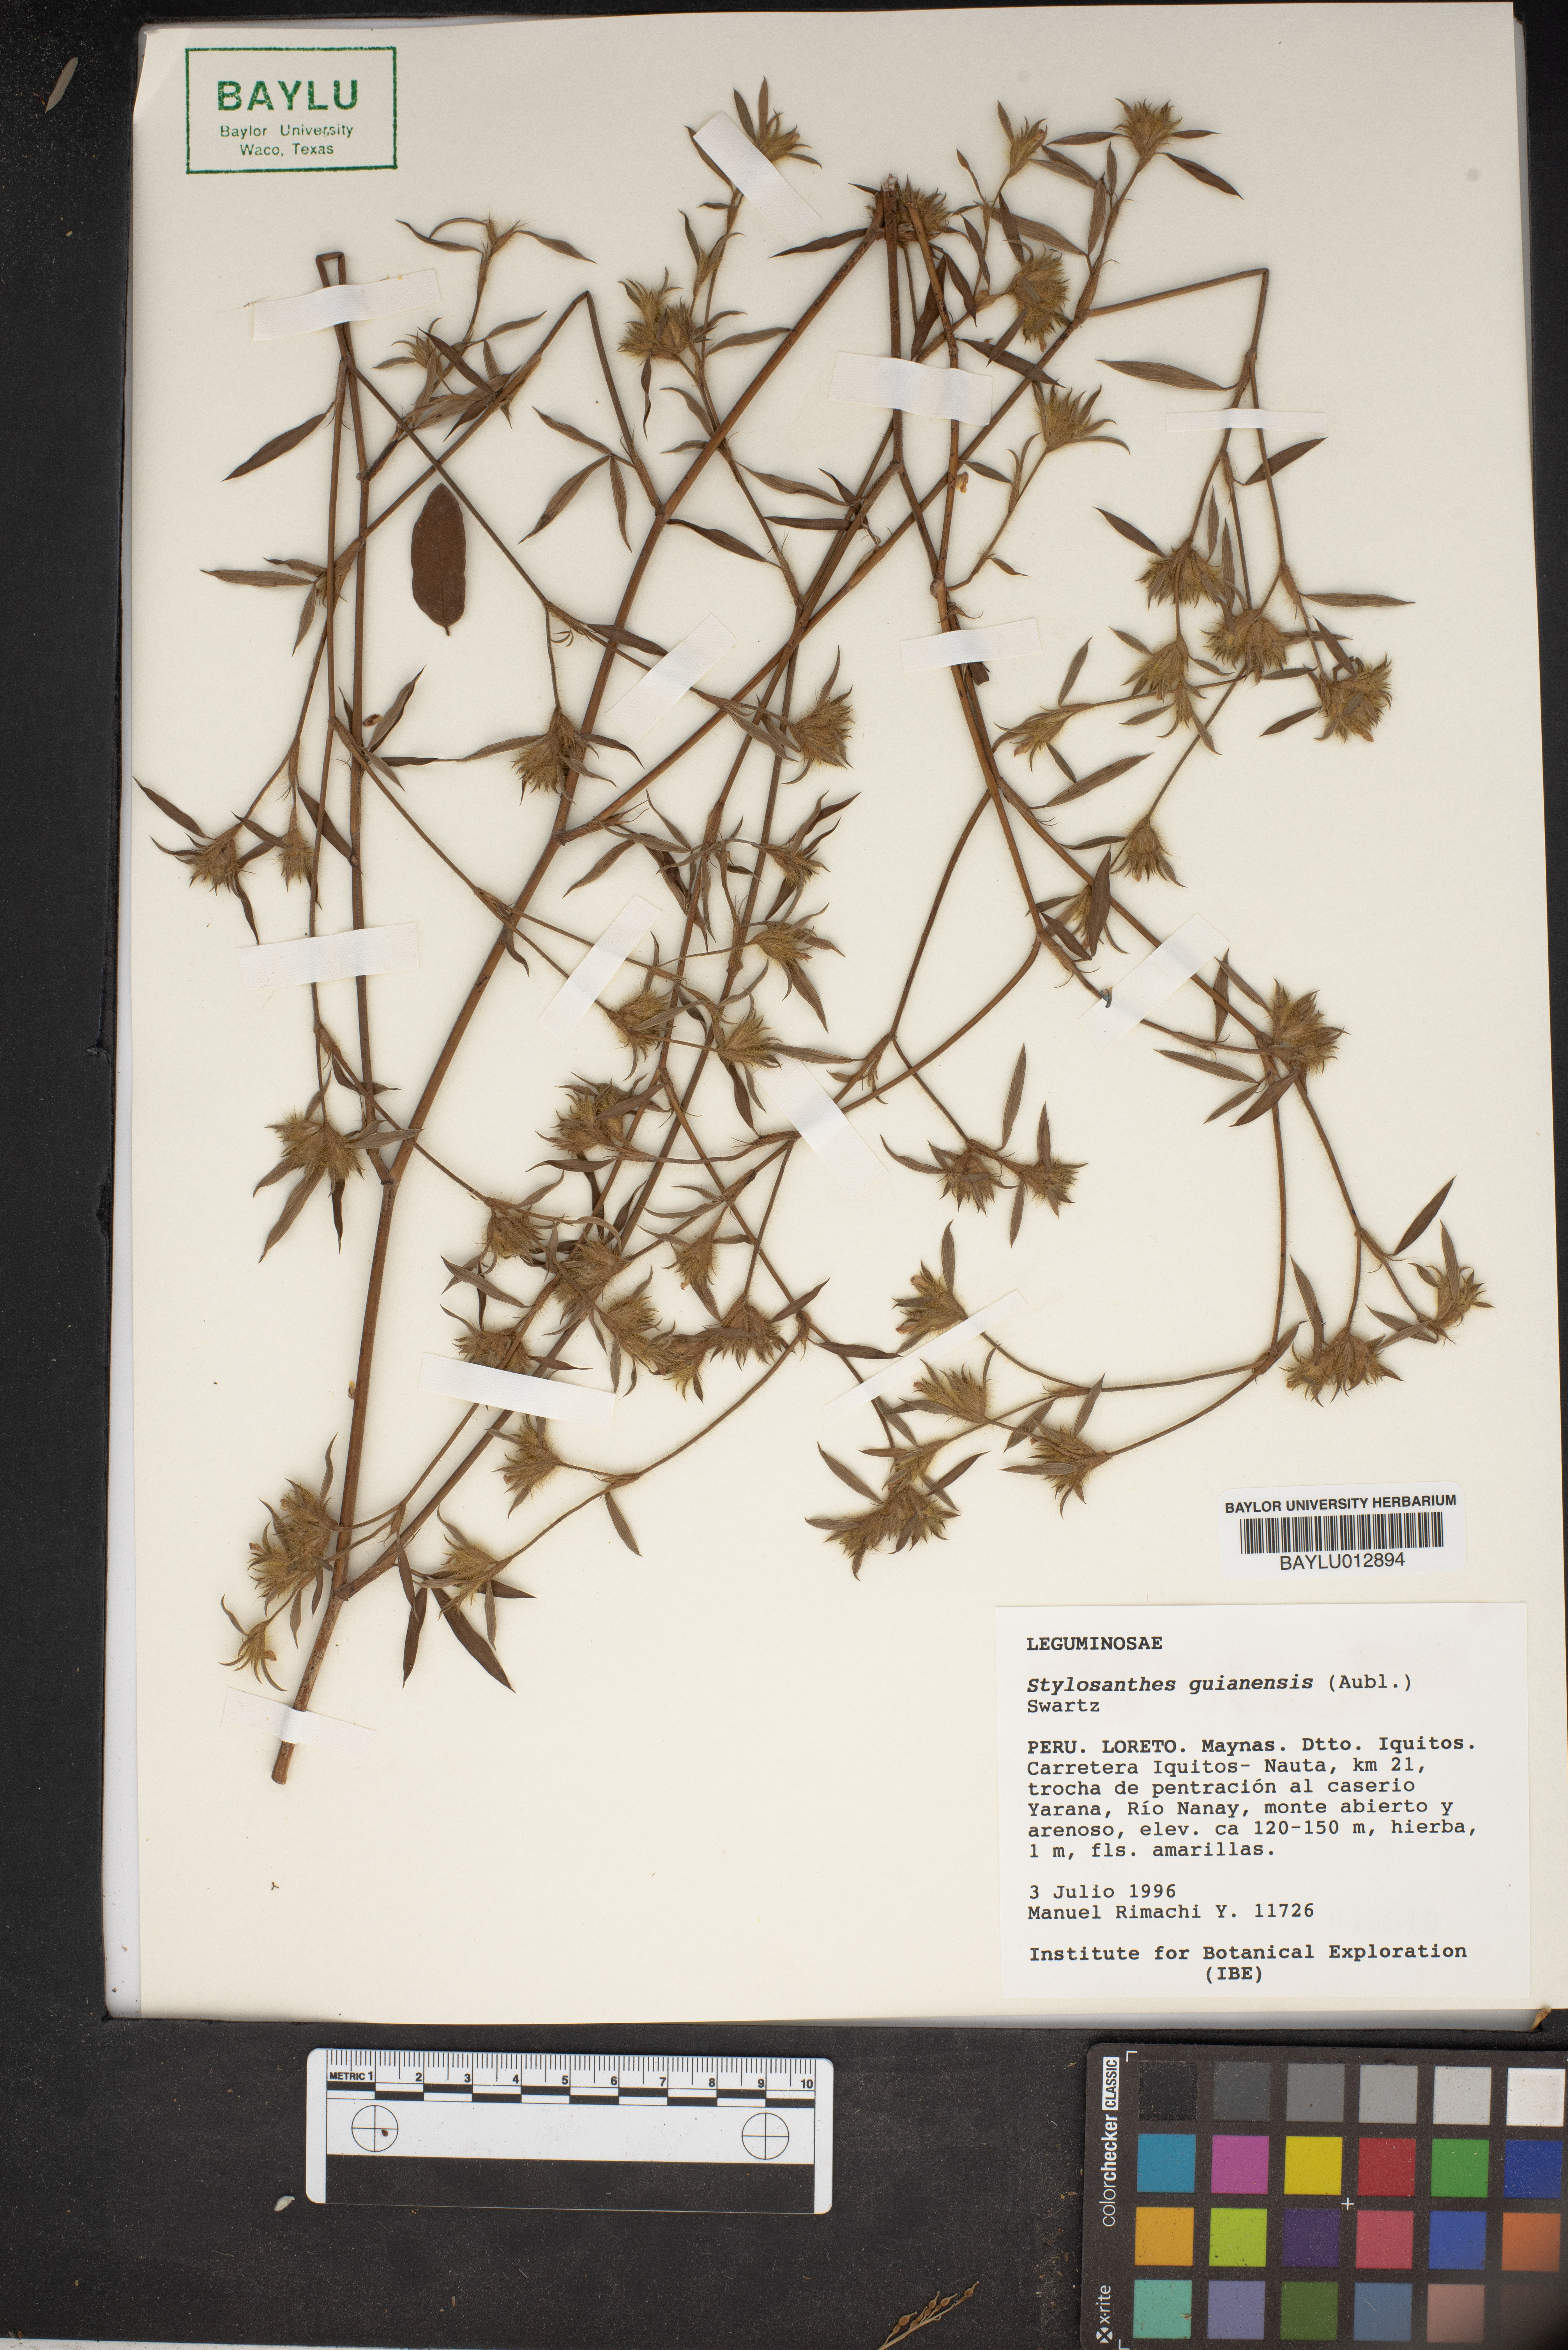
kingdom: Plantae
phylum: Tracheophyta
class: Magnoliopsida
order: Fabales
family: Fabaceae
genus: Stylosanthes
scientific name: Stylosanthes guianensis
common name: Pencil flower
